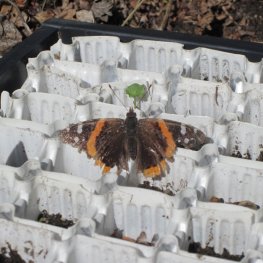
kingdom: Animalia
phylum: Arthropoda
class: Insecta
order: Lepidoptera
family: Nymphalidae
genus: Vanessa
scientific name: Vanessa atalanta
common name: Red Admiral
